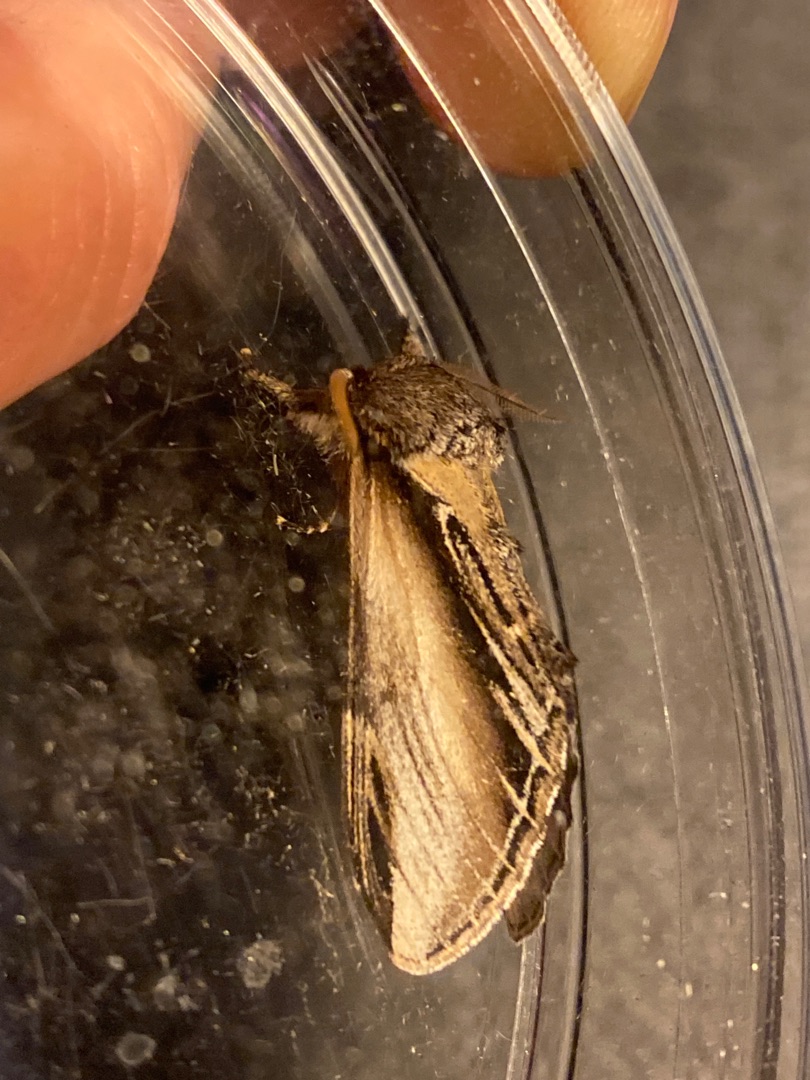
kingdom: Animalia
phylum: Arthropoda
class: Insecta
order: Lepidoptera
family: Notodontidae
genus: Pheosia
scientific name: Pheosia tremula
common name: Poppelporcelænsspinder
